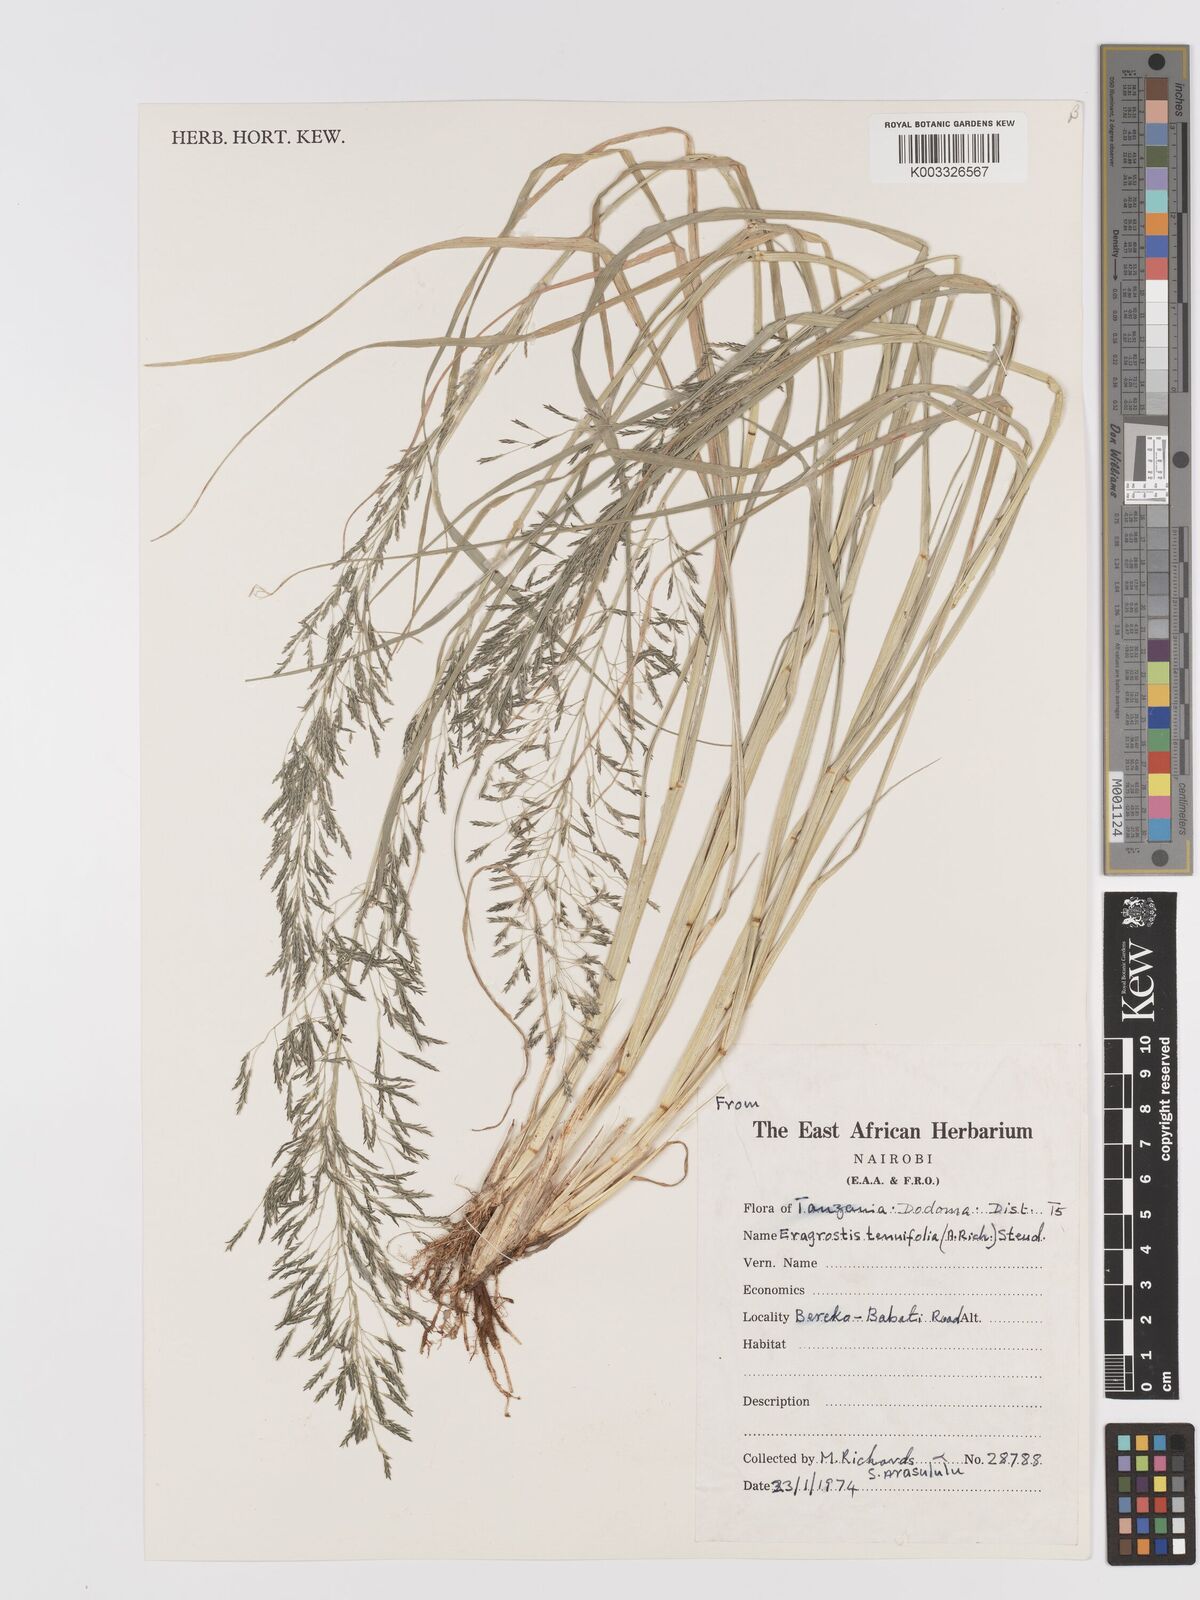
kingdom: Plantae
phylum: Tracheophyta
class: Liliopsida
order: Poales
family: Poaceae
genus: Eragrostis
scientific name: Eragrostis tenuifolia
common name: Elastic grass
